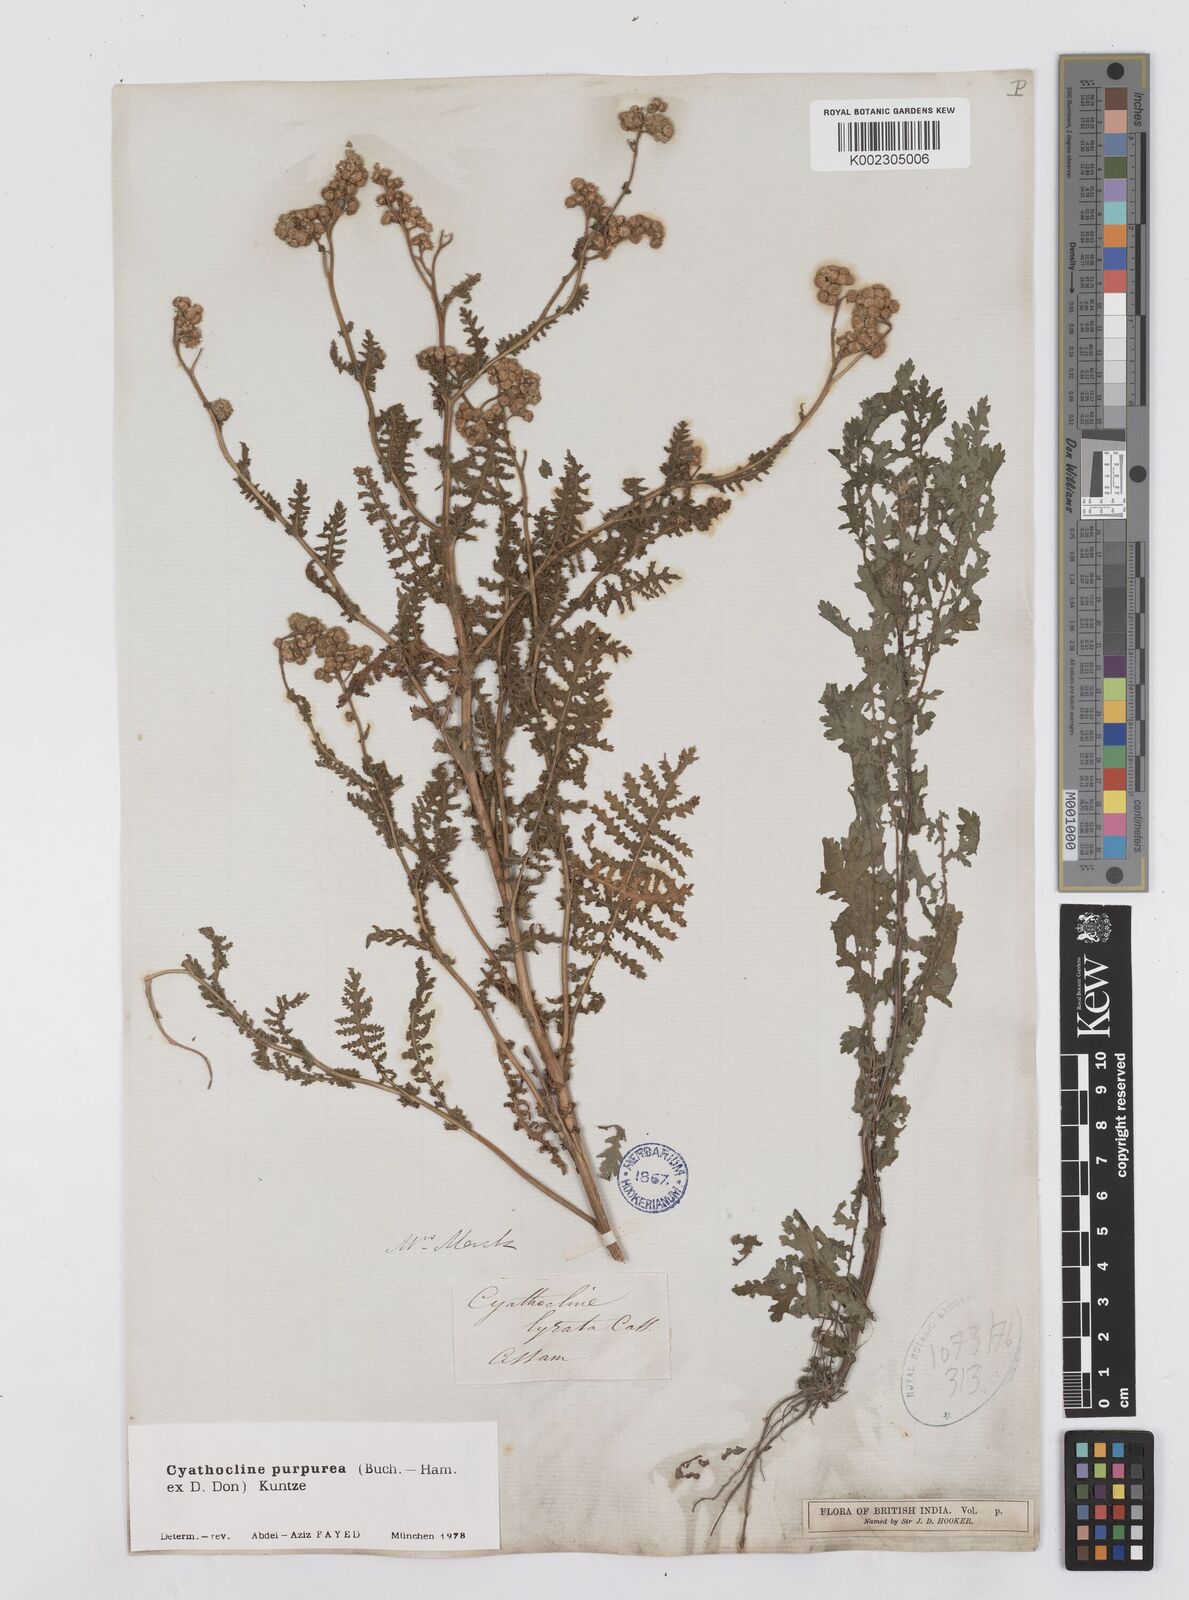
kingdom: Plantae
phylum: Tracheophyta
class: Magnoliopsida
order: Asterales
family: Asteraceae
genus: Cyathocline
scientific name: Cyathocline purpurea
